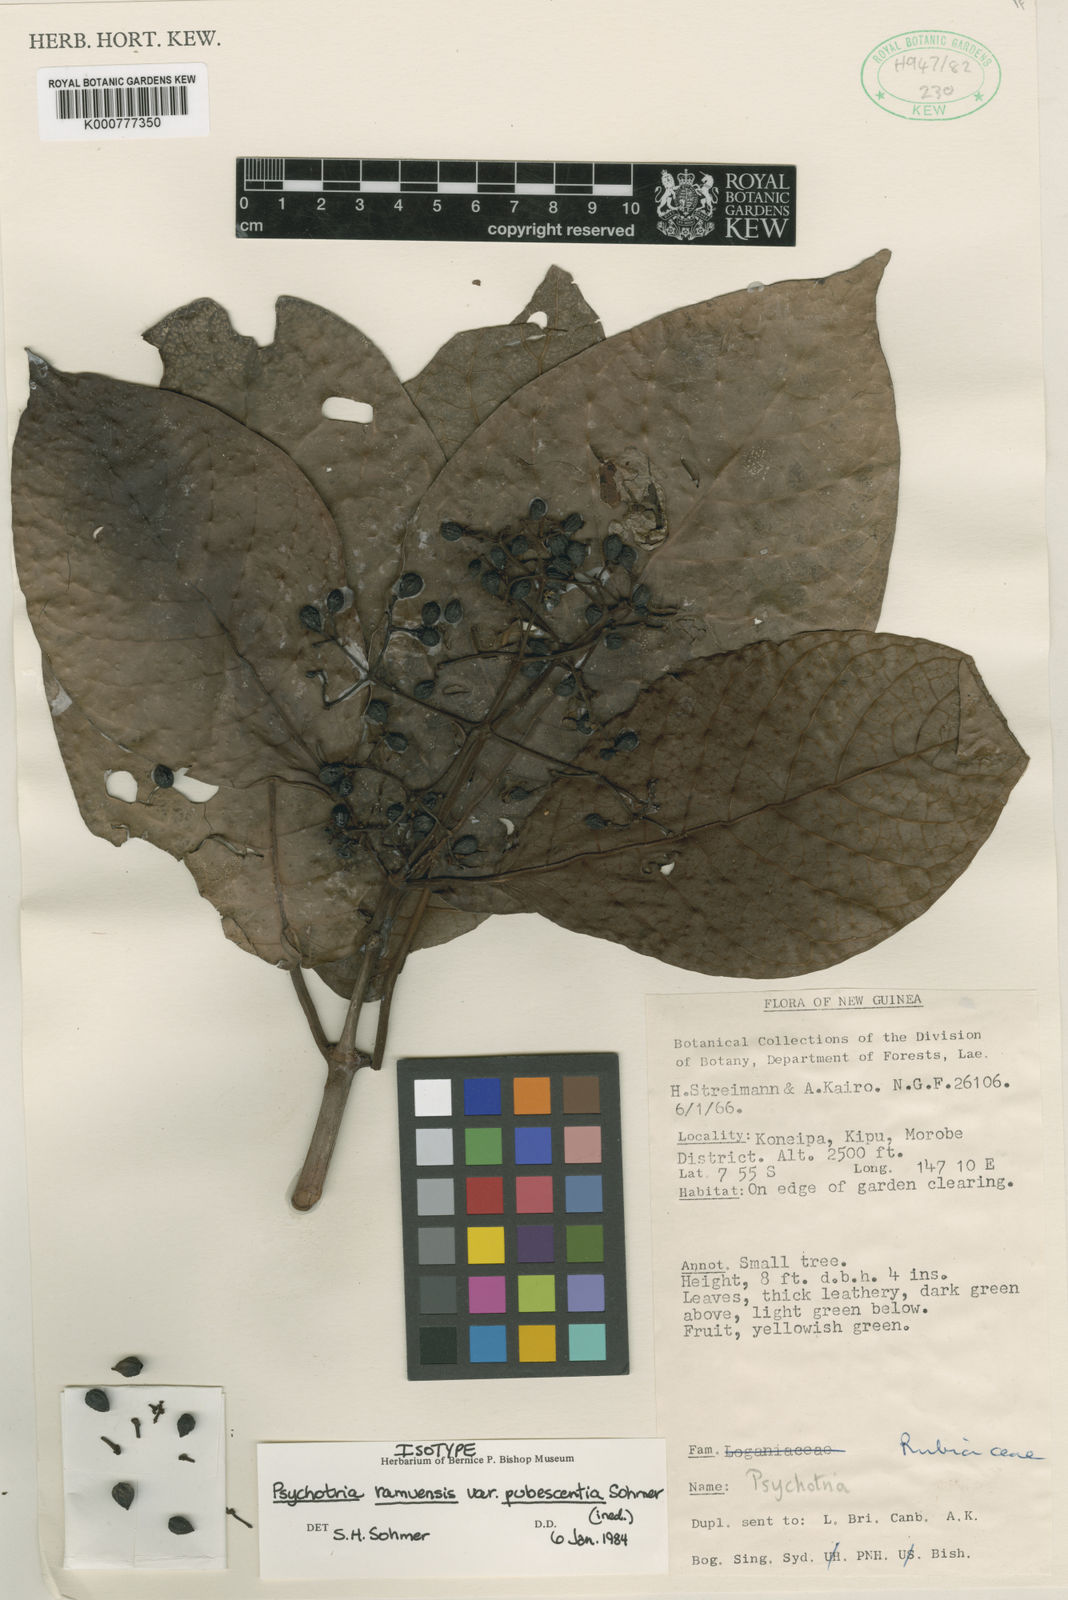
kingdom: Plantae
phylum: Tracheophyta
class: Magnoliopsida
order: Gentianales
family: Rubiaceae
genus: Psychotria
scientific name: Psychotria ramuensis
